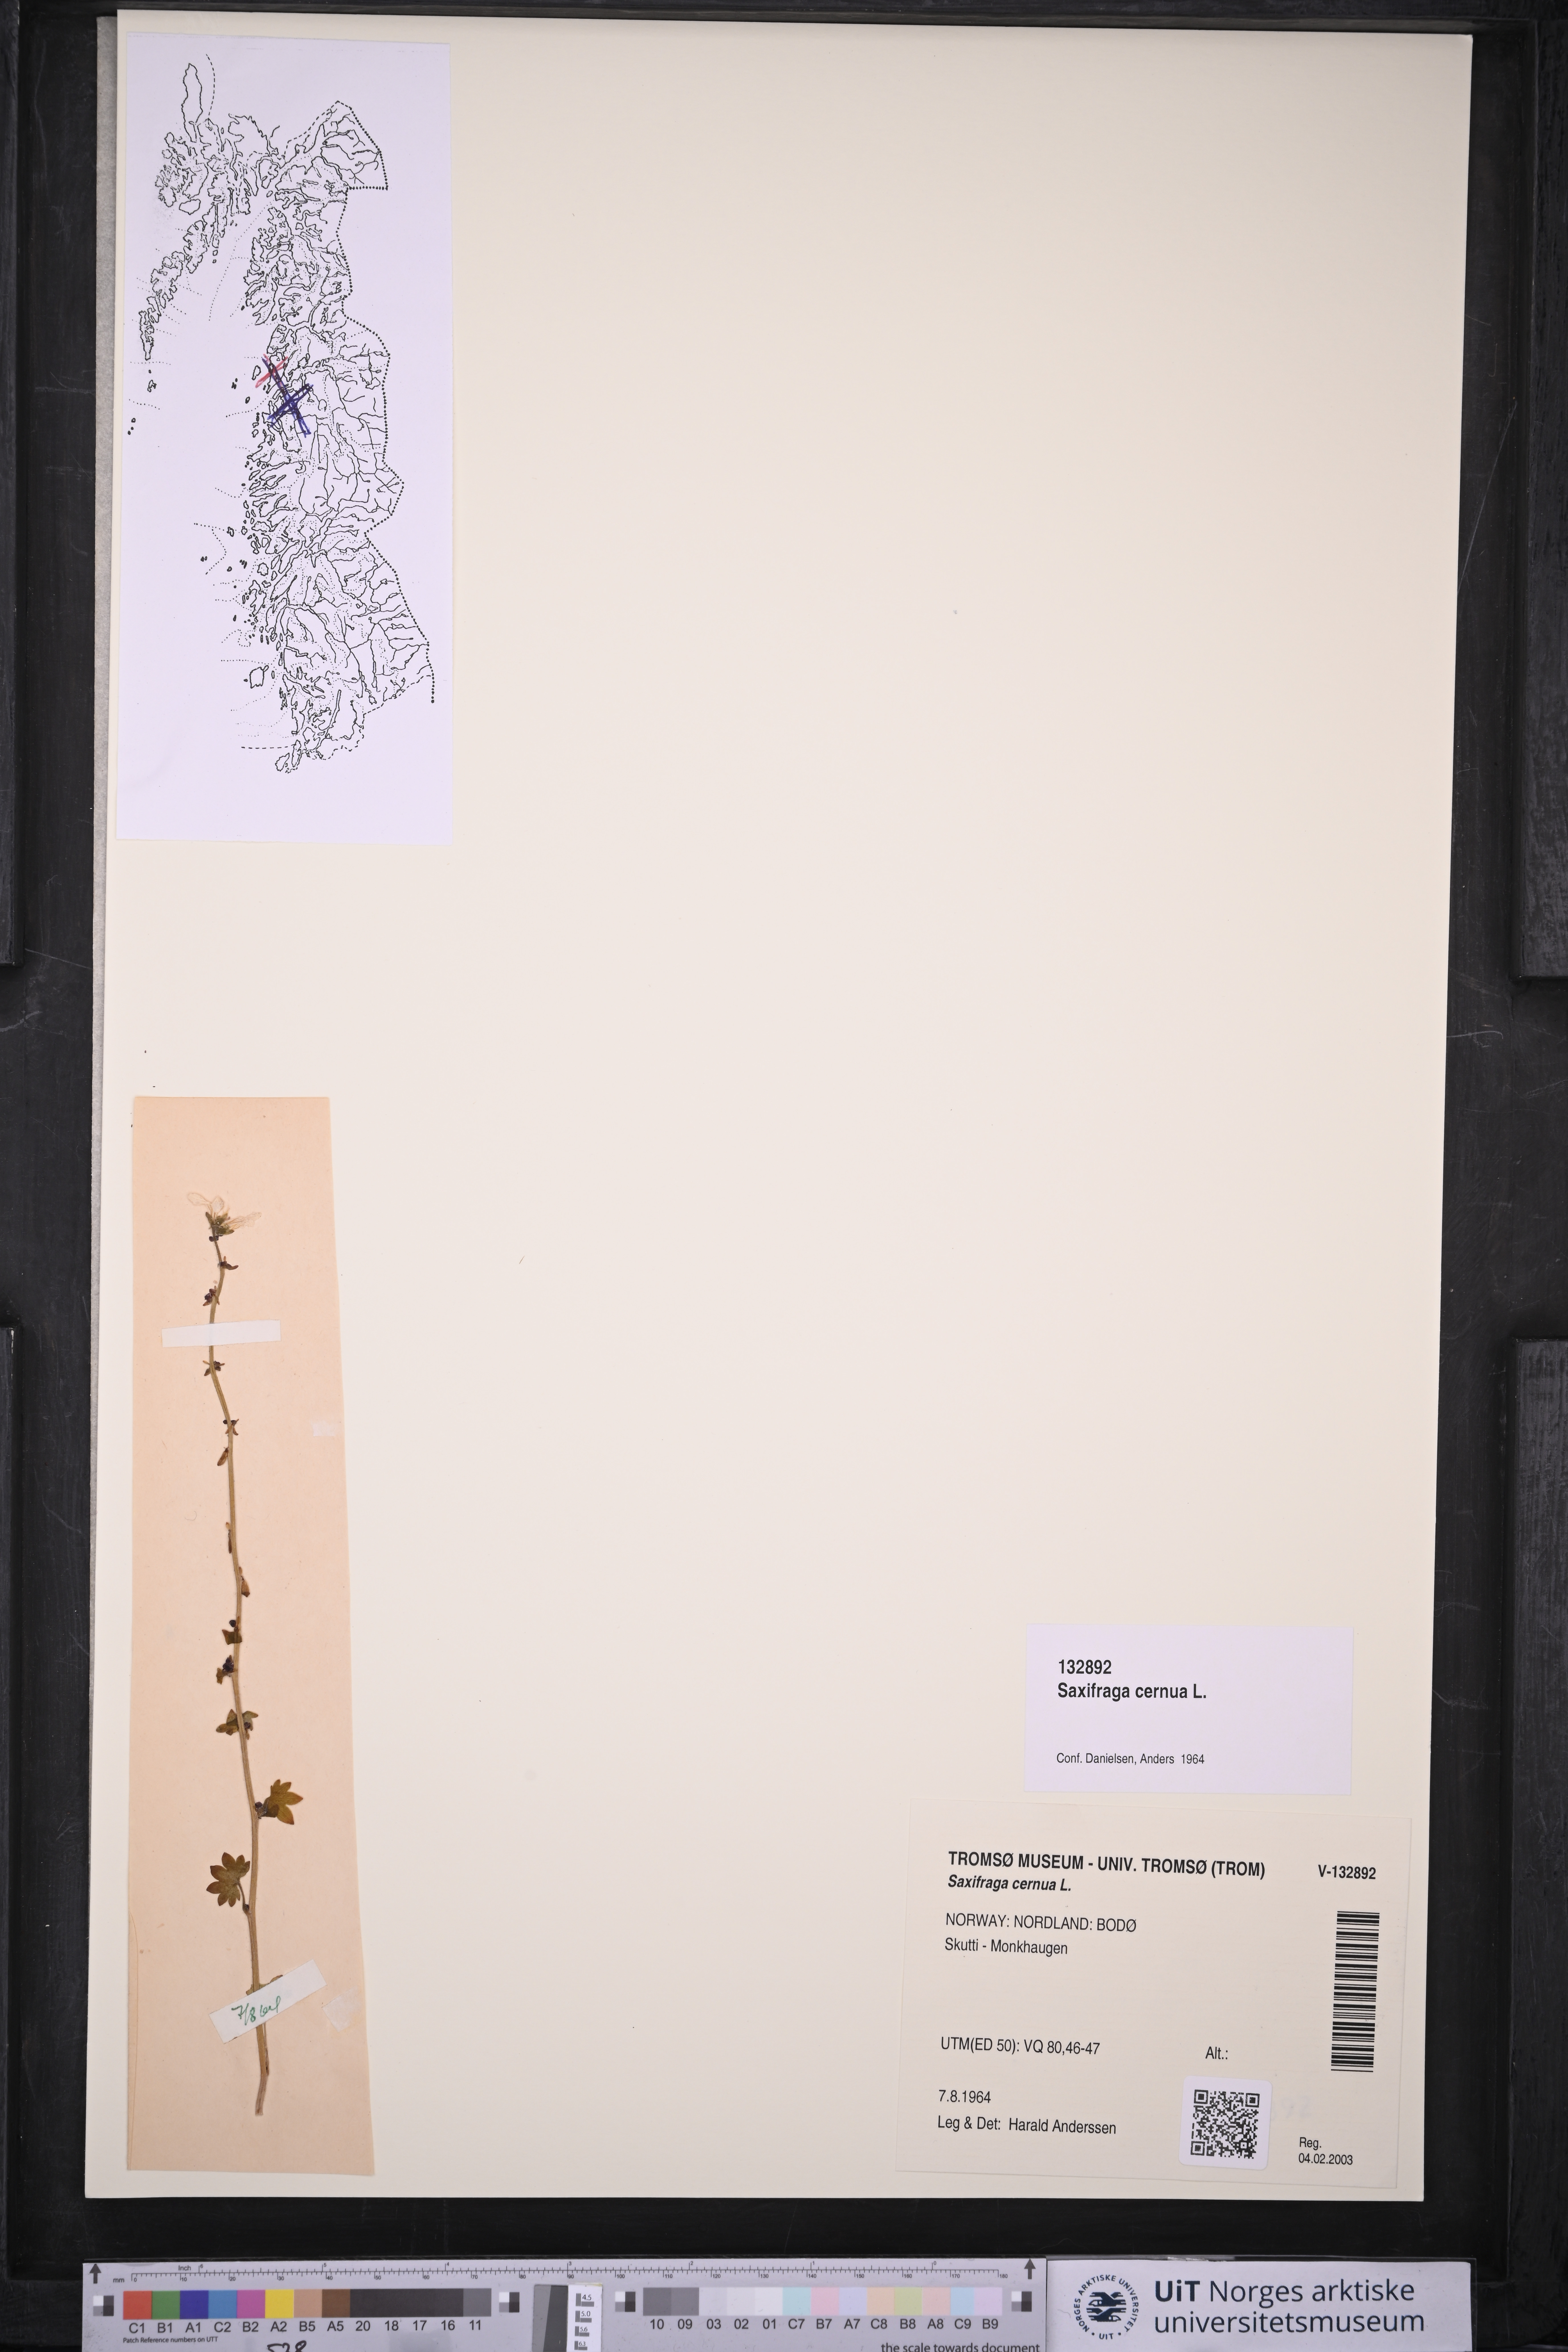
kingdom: Plantae
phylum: Tracheophyta
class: Magnoliopsida
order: Saxifragales
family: Saxifragaceae
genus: Saxifraga
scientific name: Saxifraga cernua
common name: Drooping saxifrage
